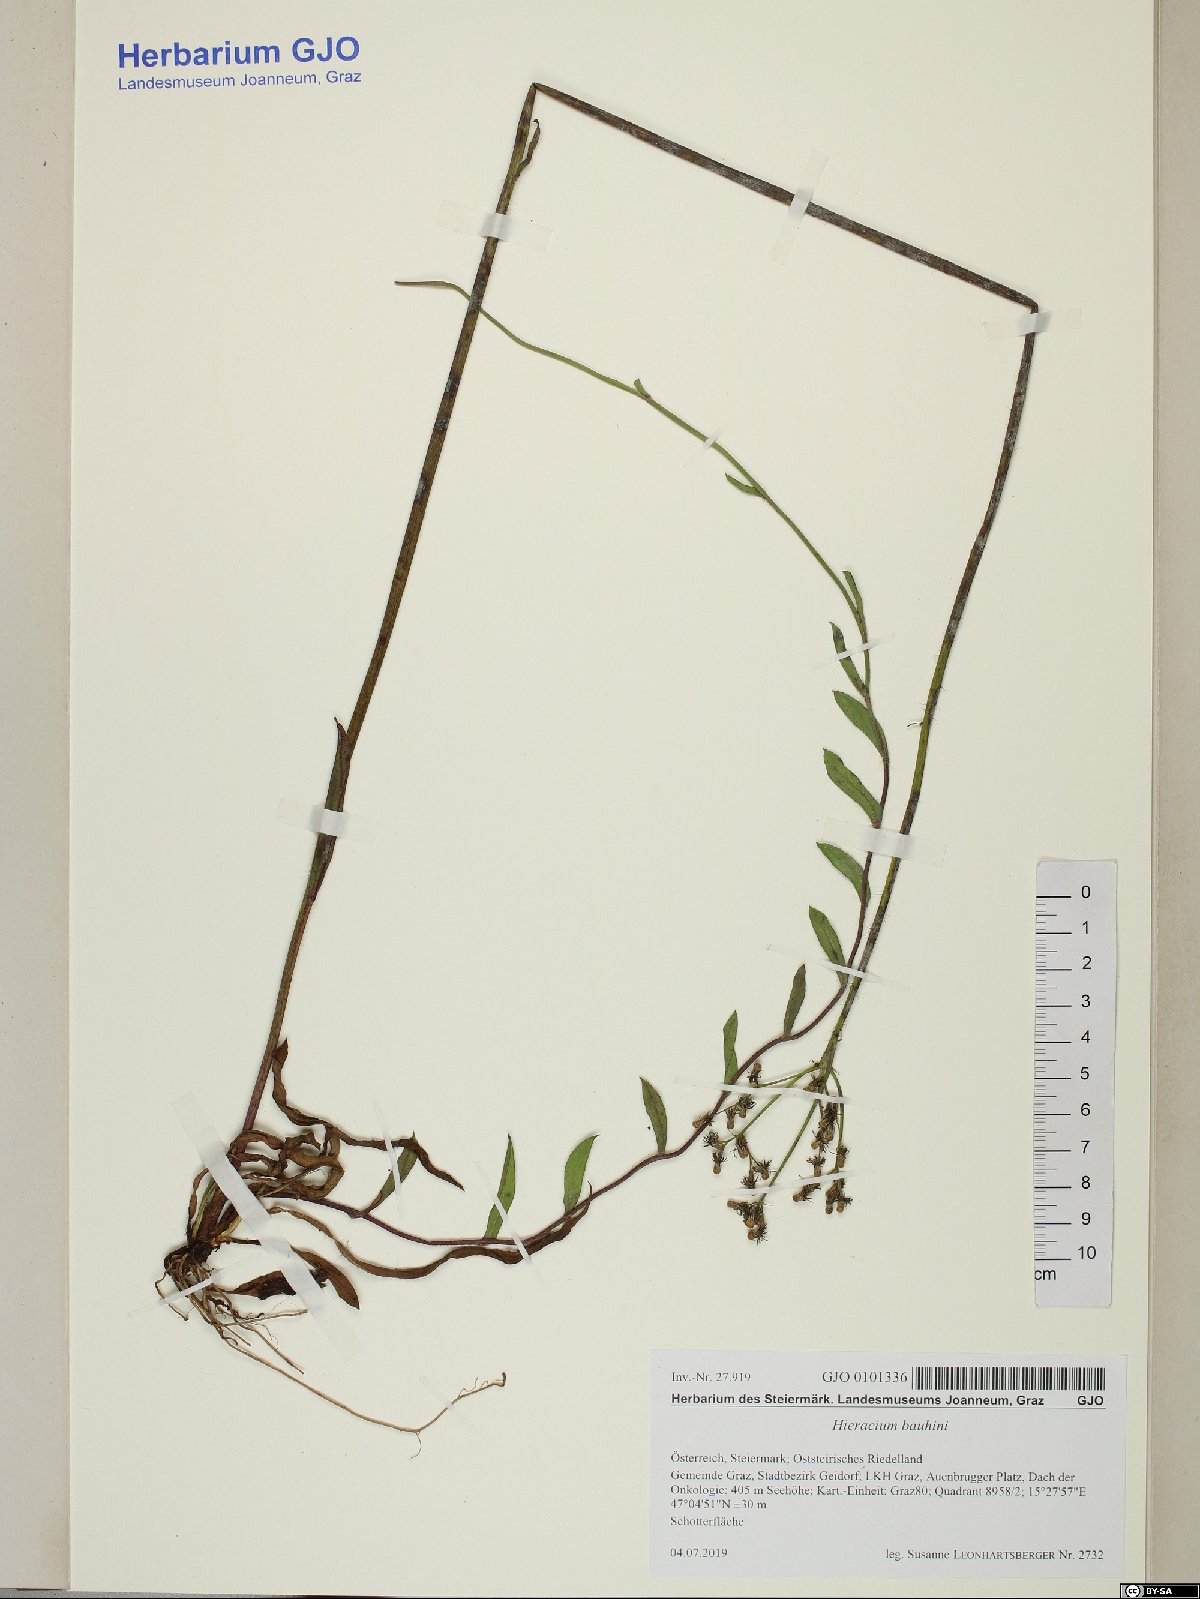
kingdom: Plantae
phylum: Tracheophyta
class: Magnoliopsida
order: Asterales
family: Asteraceae
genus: Pilosella
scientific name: Pilosella bauhini
